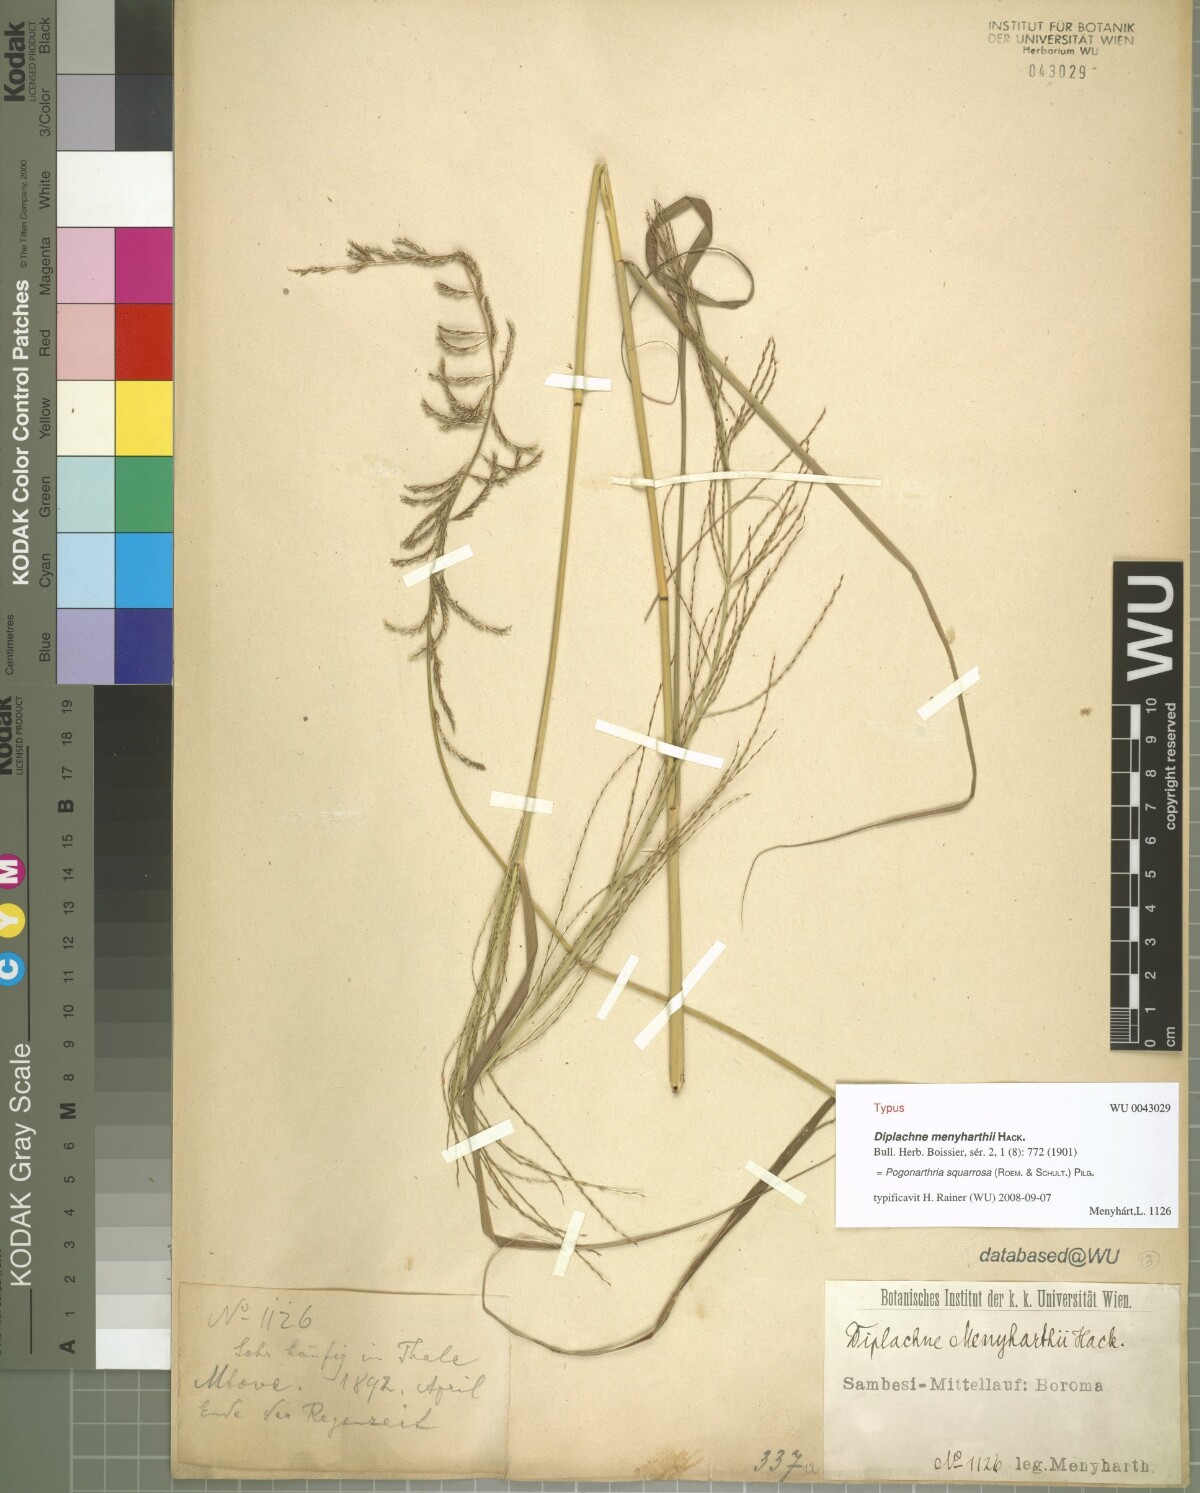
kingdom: Plantae
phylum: Tracheophyta
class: Liliopsida
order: Poales
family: Poaceae
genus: Pogonarthria
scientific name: Pogonarthria squarrosa
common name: Grass
